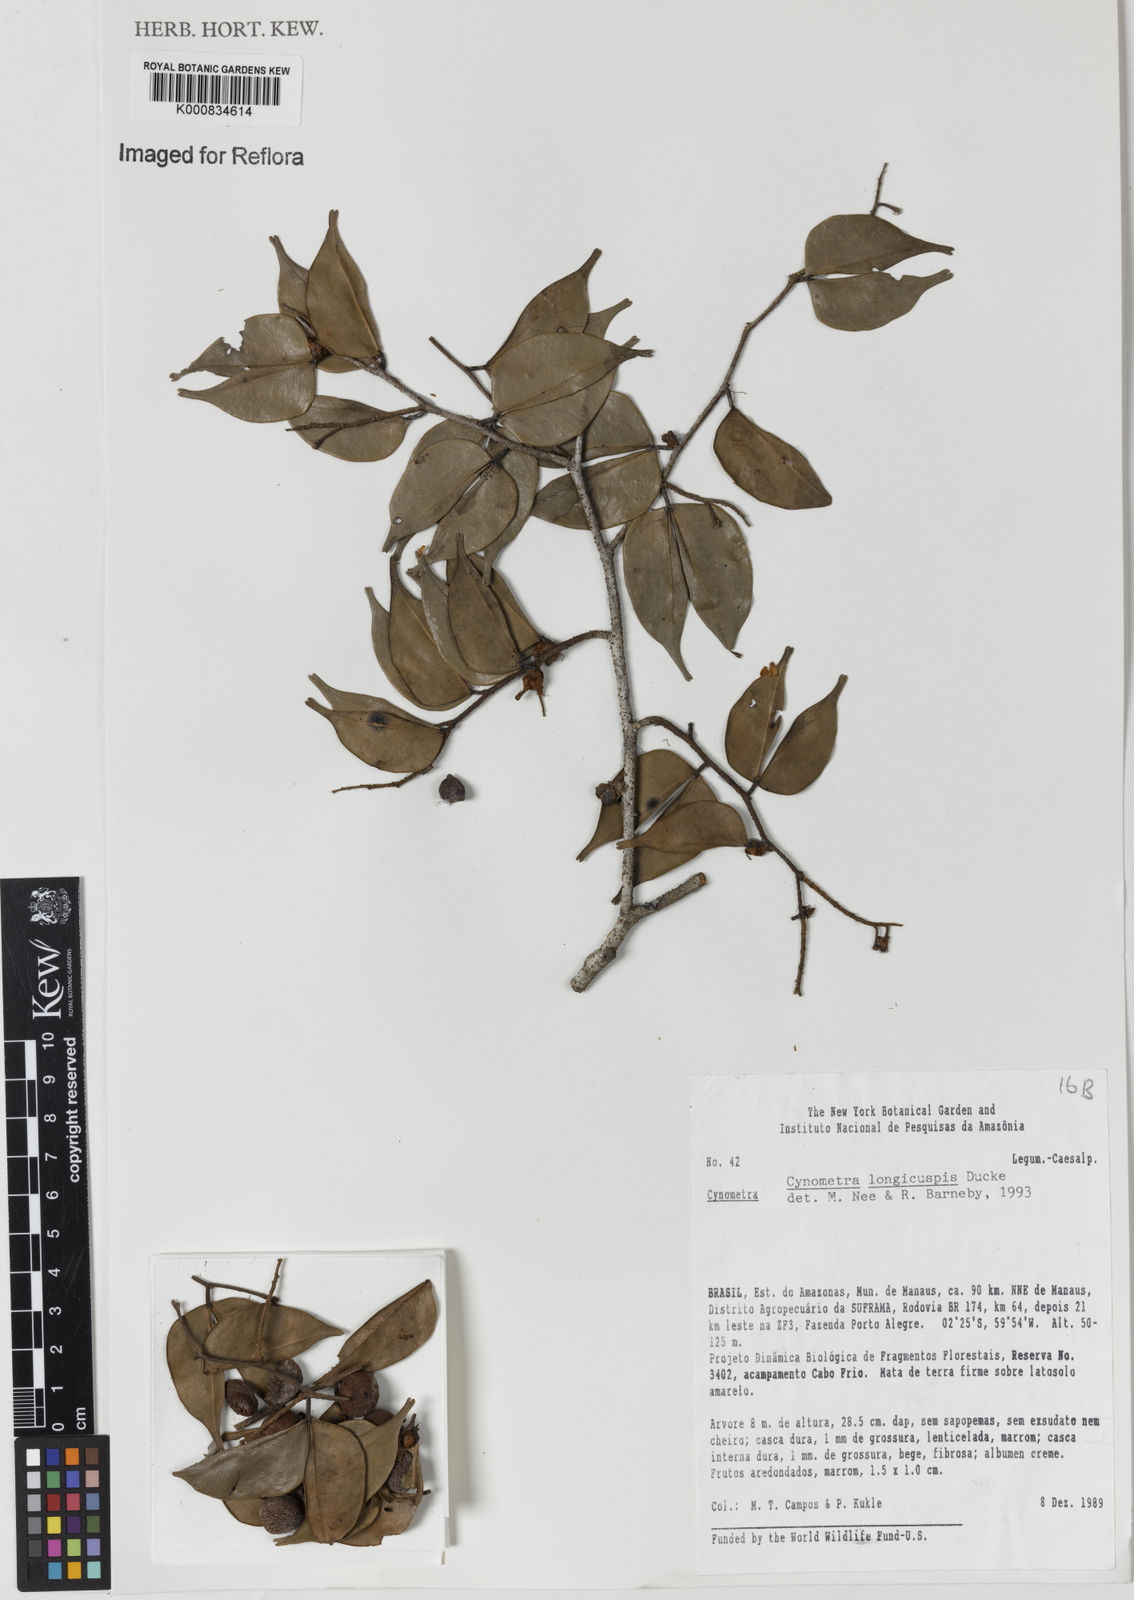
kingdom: Plantae
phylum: Tracheophyta
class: Magnoliopsida
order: Fabales
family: Fabaceae
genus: Cynometra
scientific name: Cynometra longicuspis
